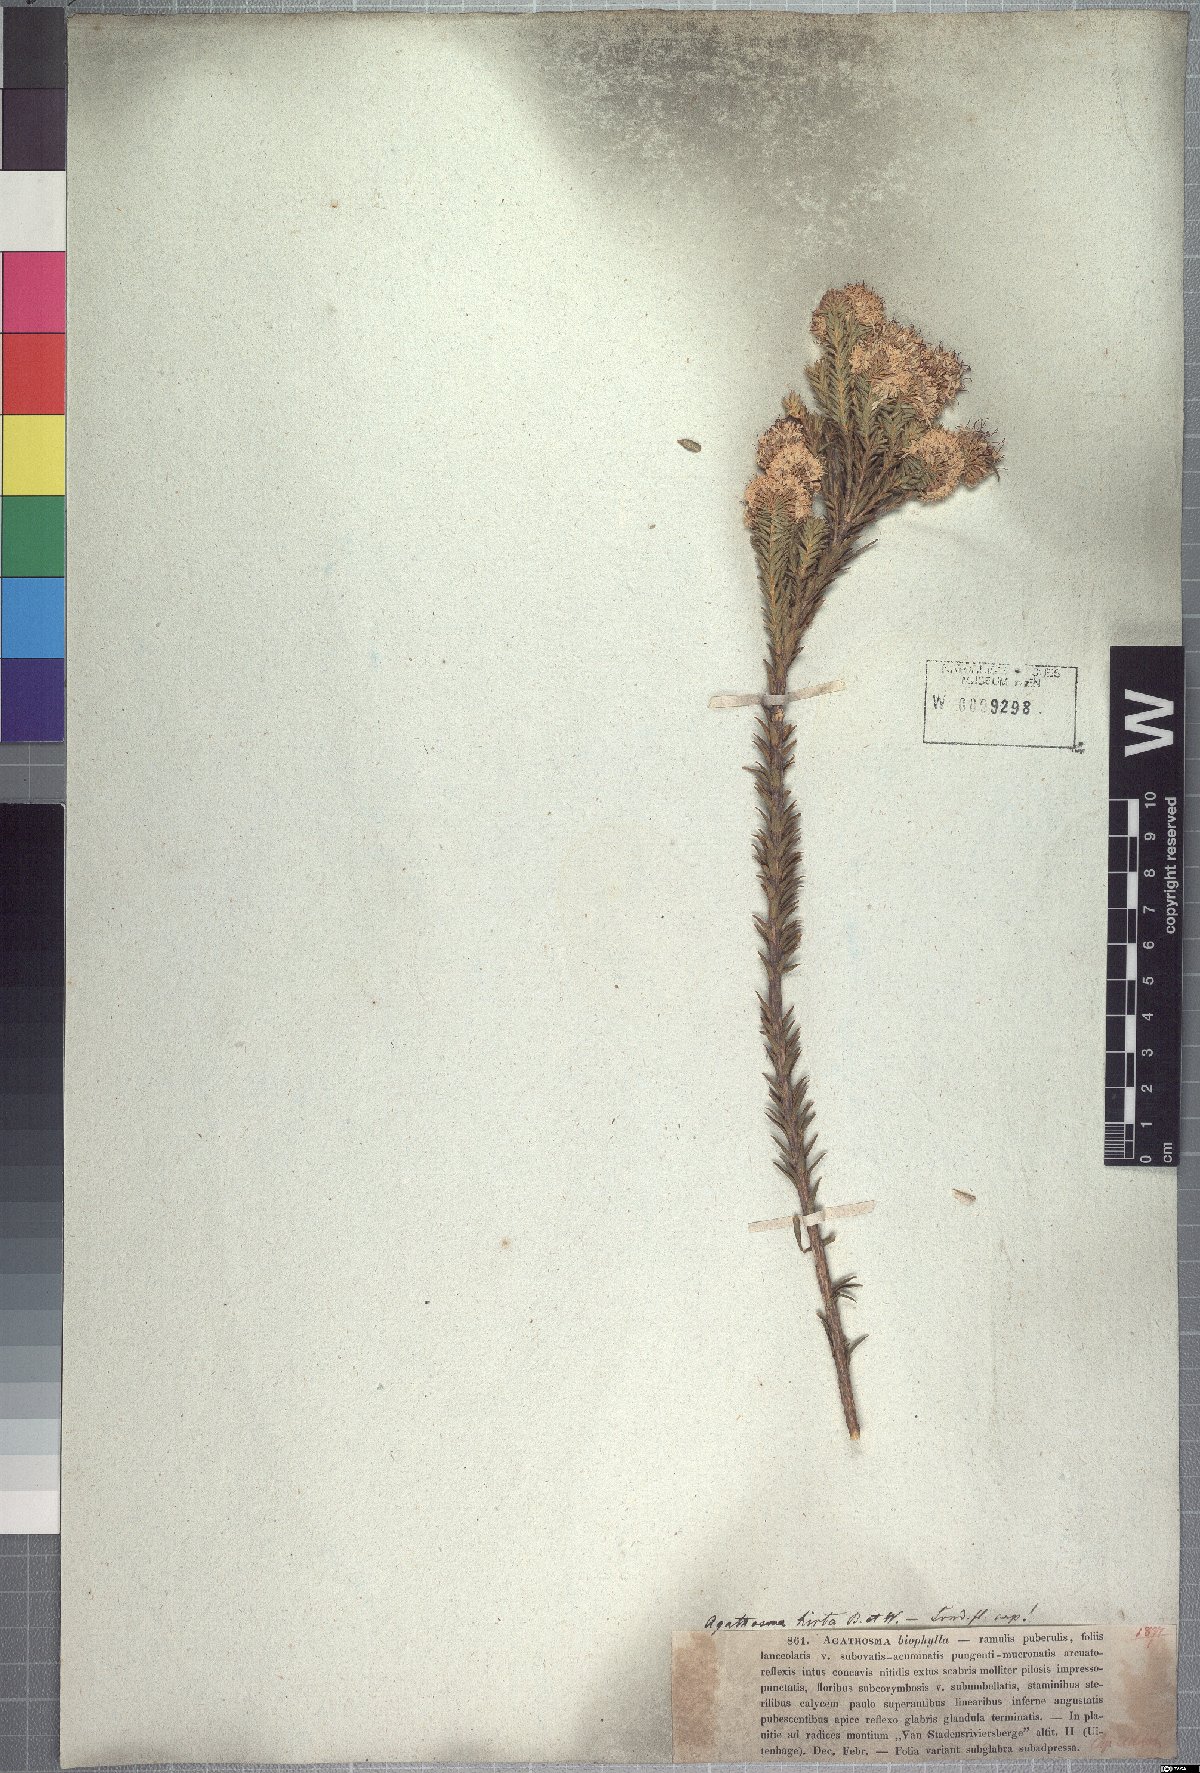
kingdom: Plantae
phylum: Tracheophyta
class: Magnoliopsida
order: Sapindales
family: Rutaceae
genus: Agathosma
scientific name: Agathosma adenocaulis
